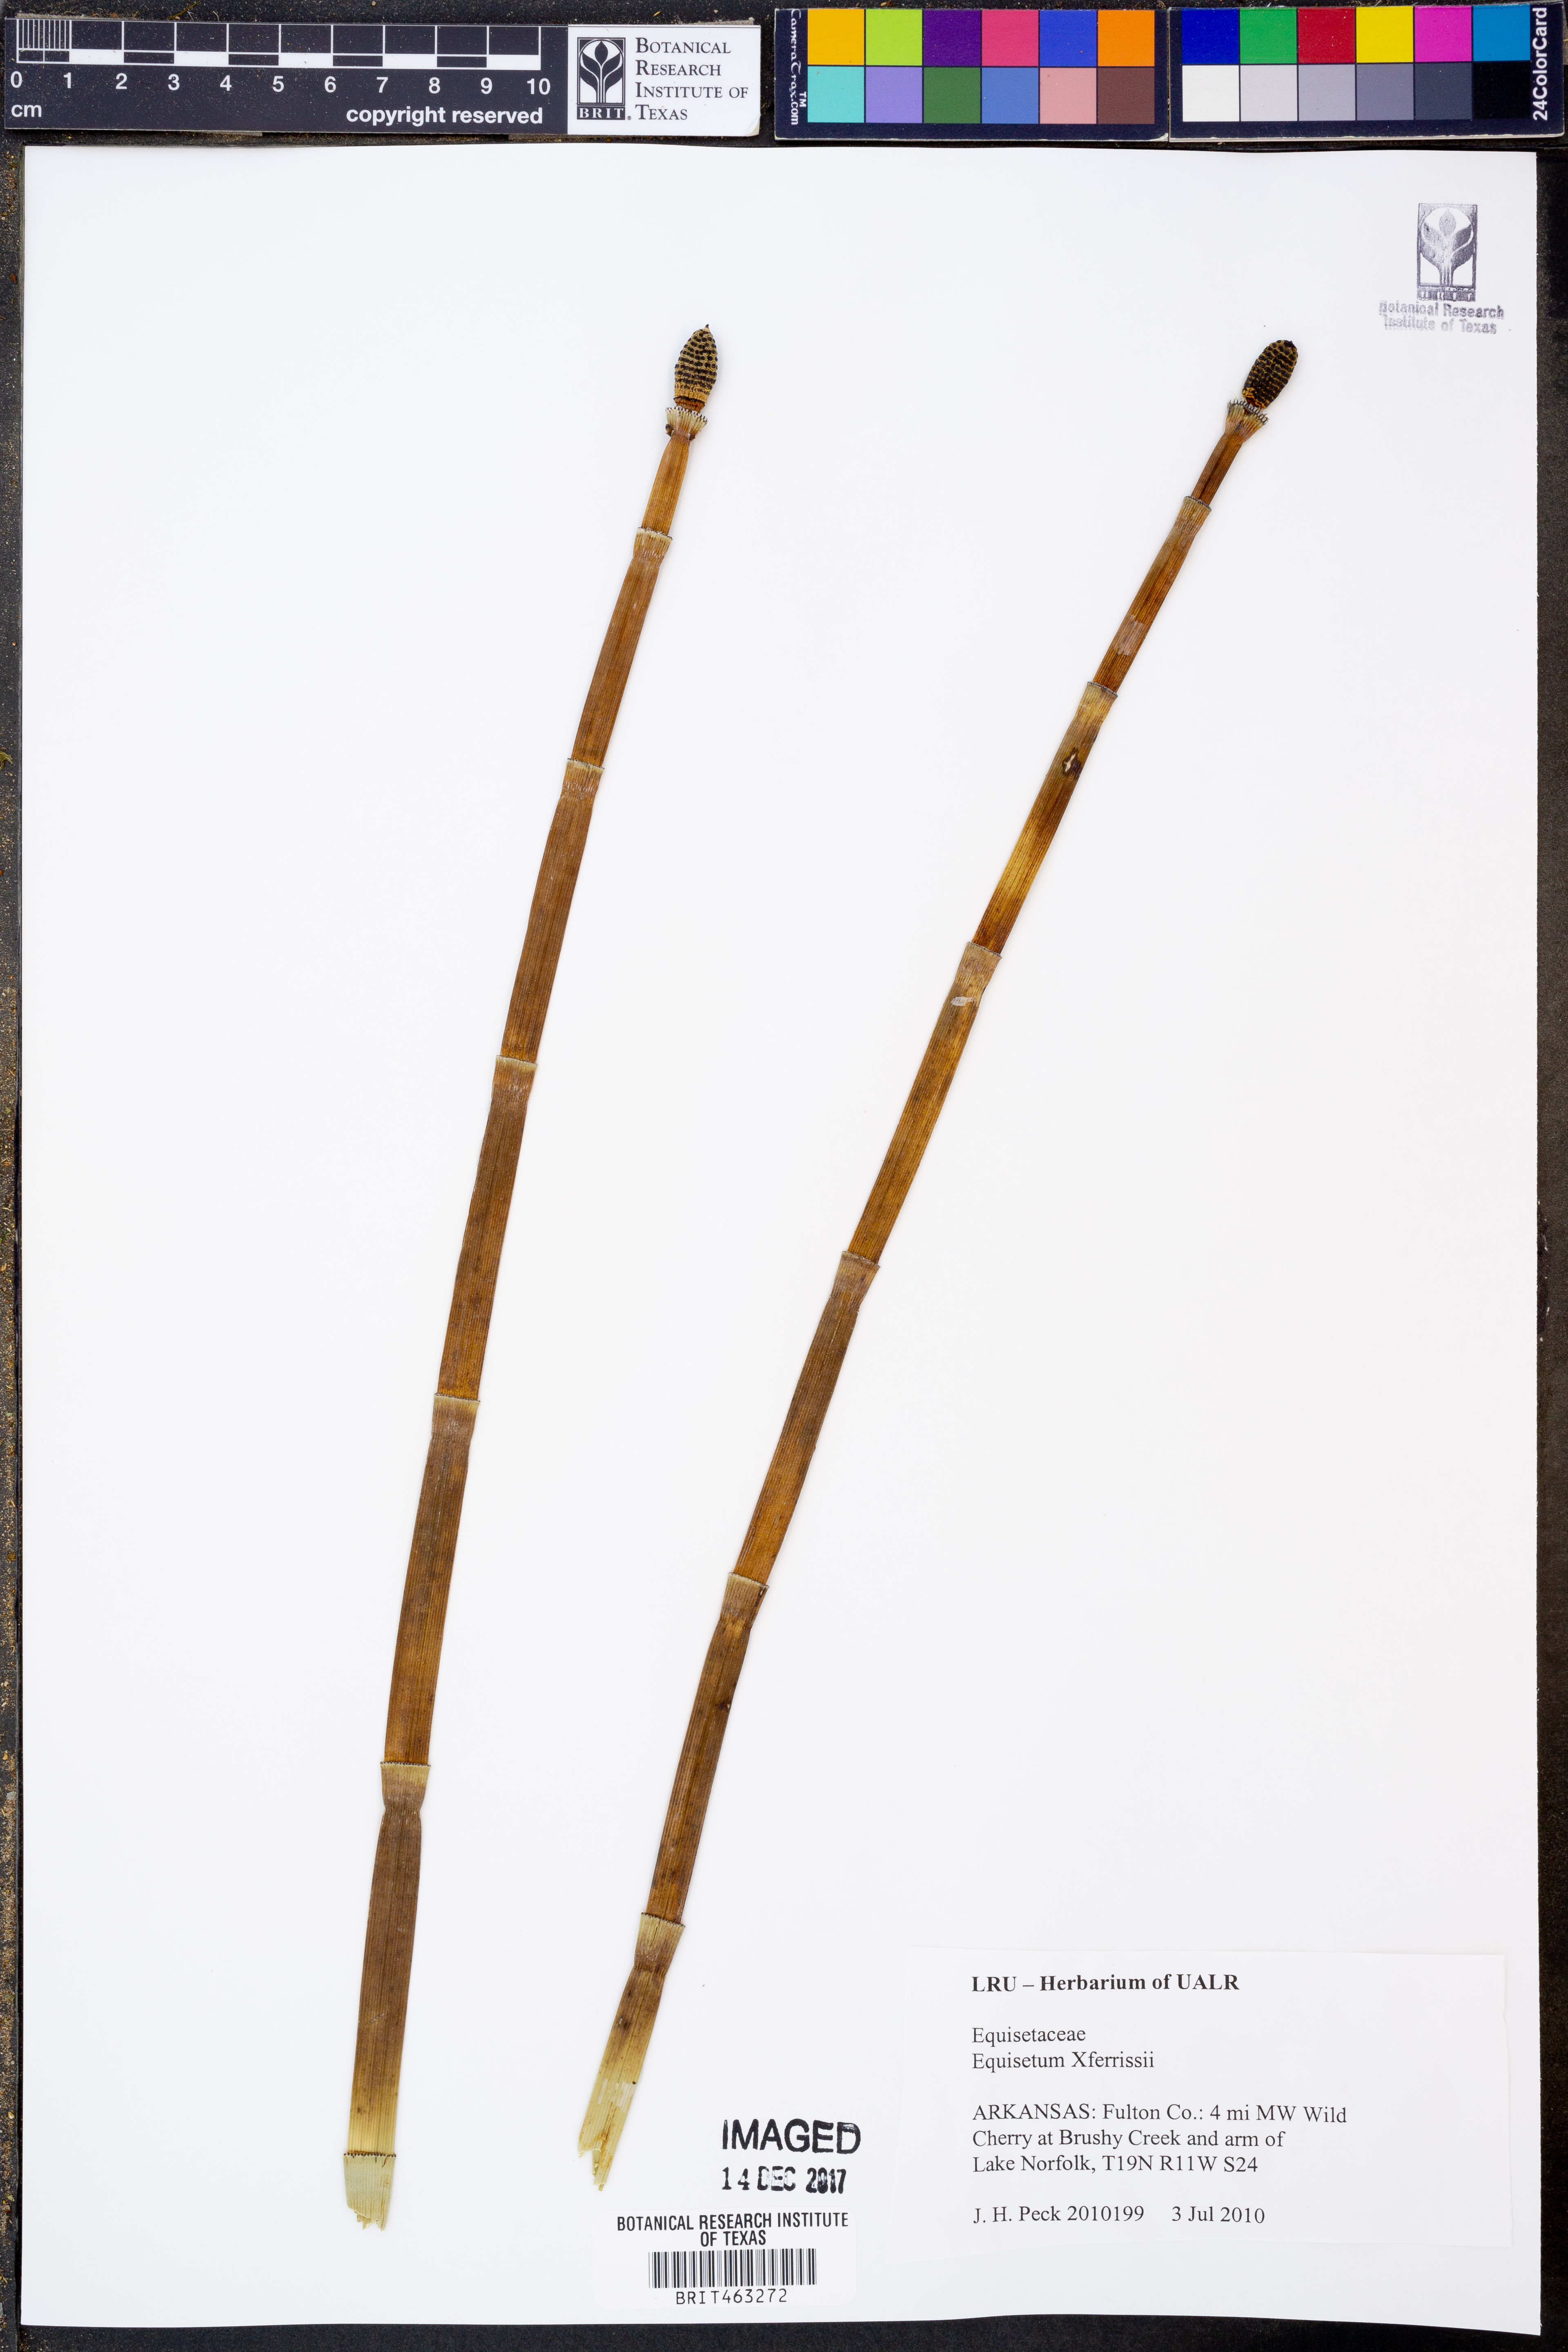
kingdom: Plantae
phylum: Tracheophyta
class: Polypodiopsida
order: Equisetales
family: Equisetaceae
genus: Equisetum
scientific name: Equisetum ferrissii
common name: Ferriss' horsetail
